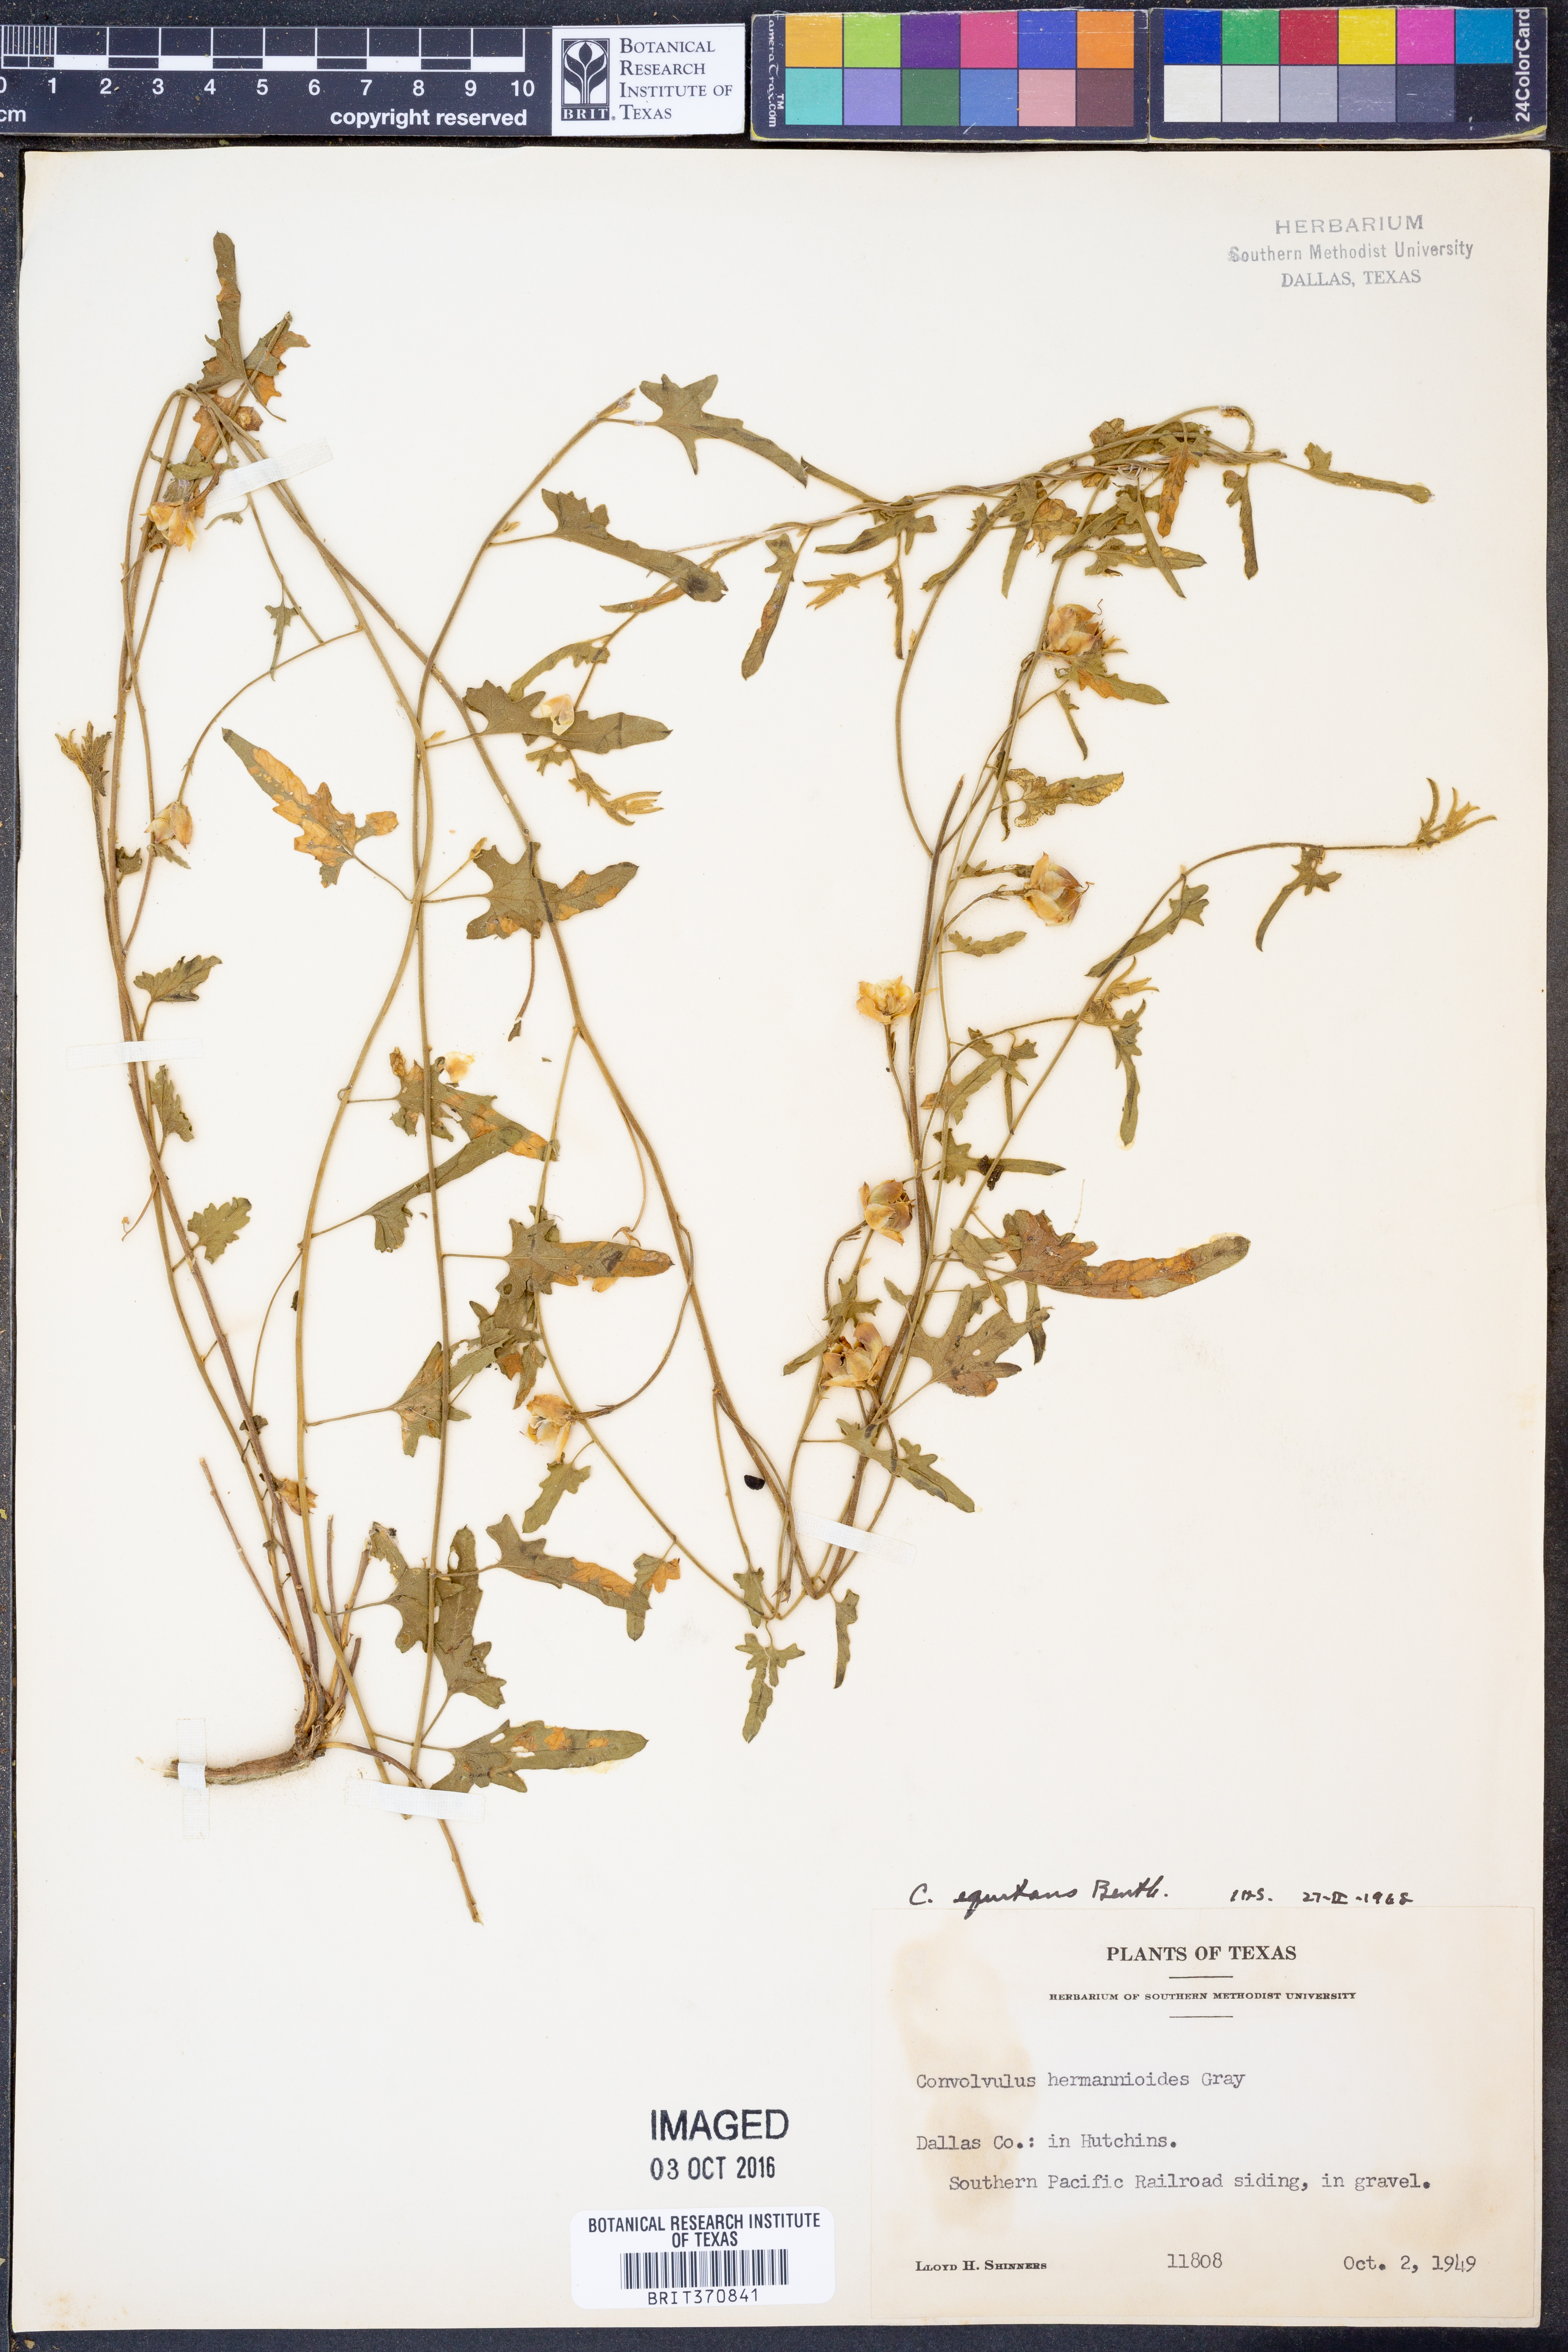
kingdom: Plantae
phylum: Tracheophyta
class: Magnoliopsida
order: Solanales
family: Convolvulaceae
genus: Convolvulus
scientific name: Convolvulus equitans
